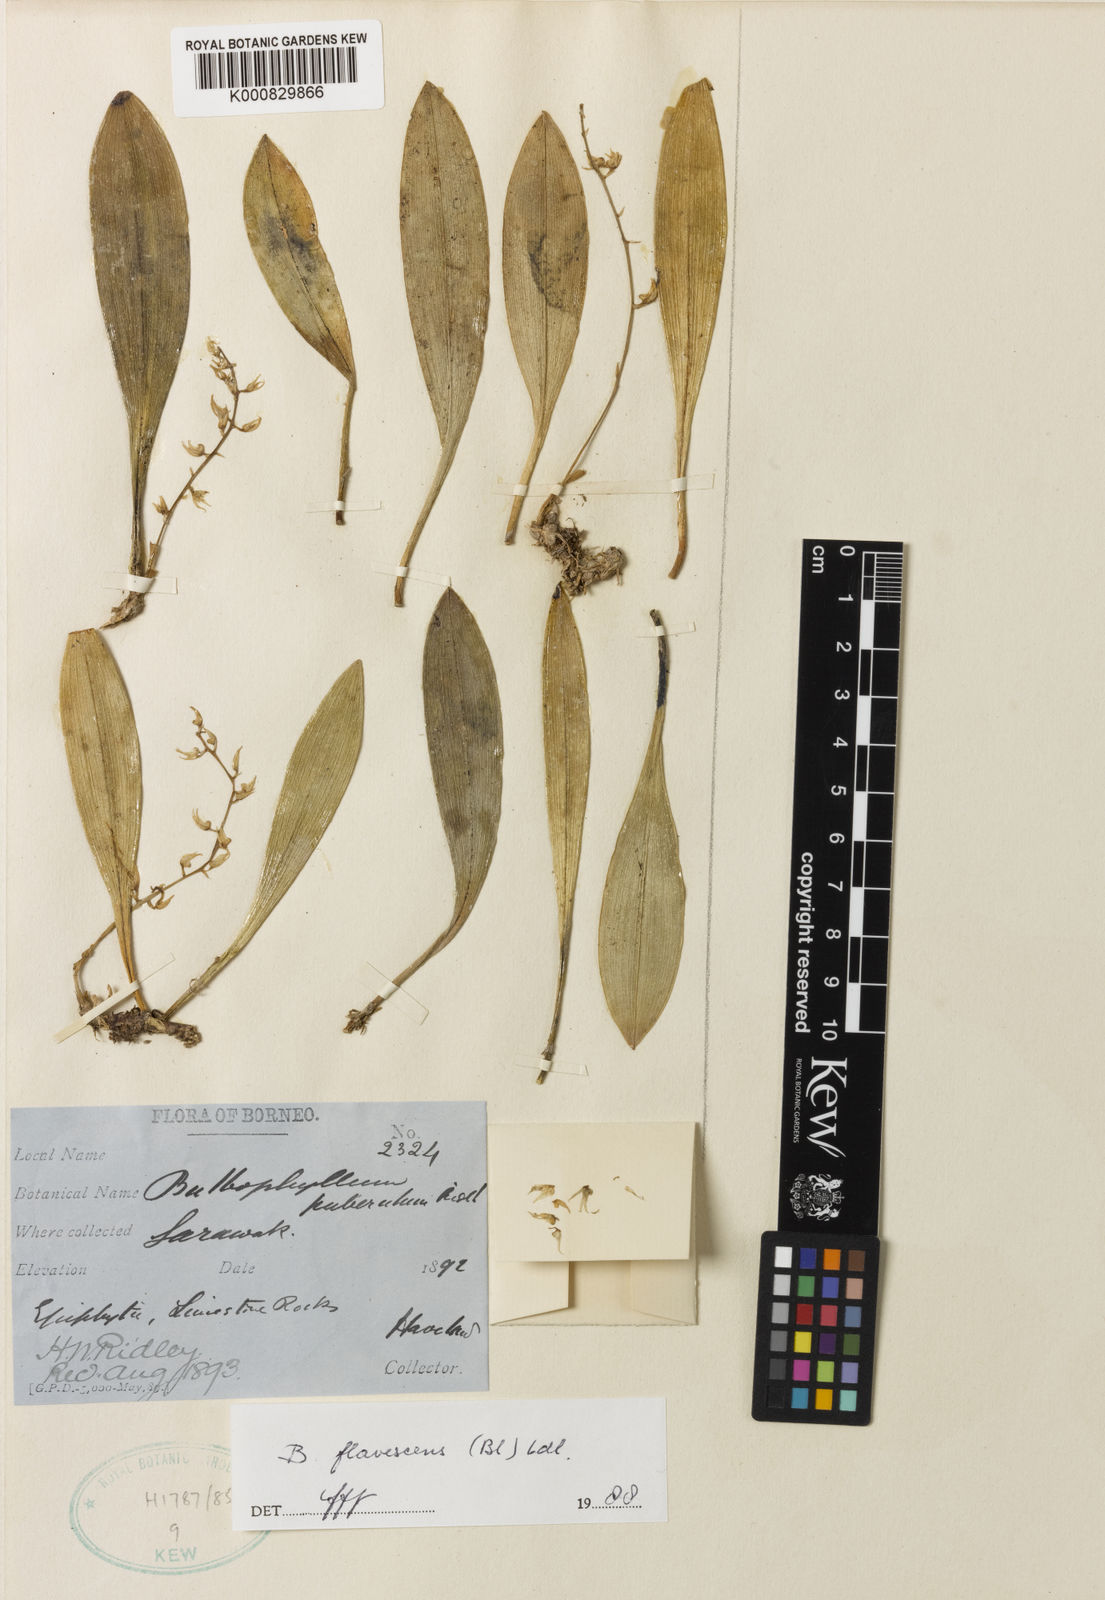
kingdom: Plantae
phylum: Tracheophyta
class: Liliopsida
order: Asparagales
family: Orchidaceae
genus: Bulbophyllum
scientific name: Bulbophyllum flavescens
